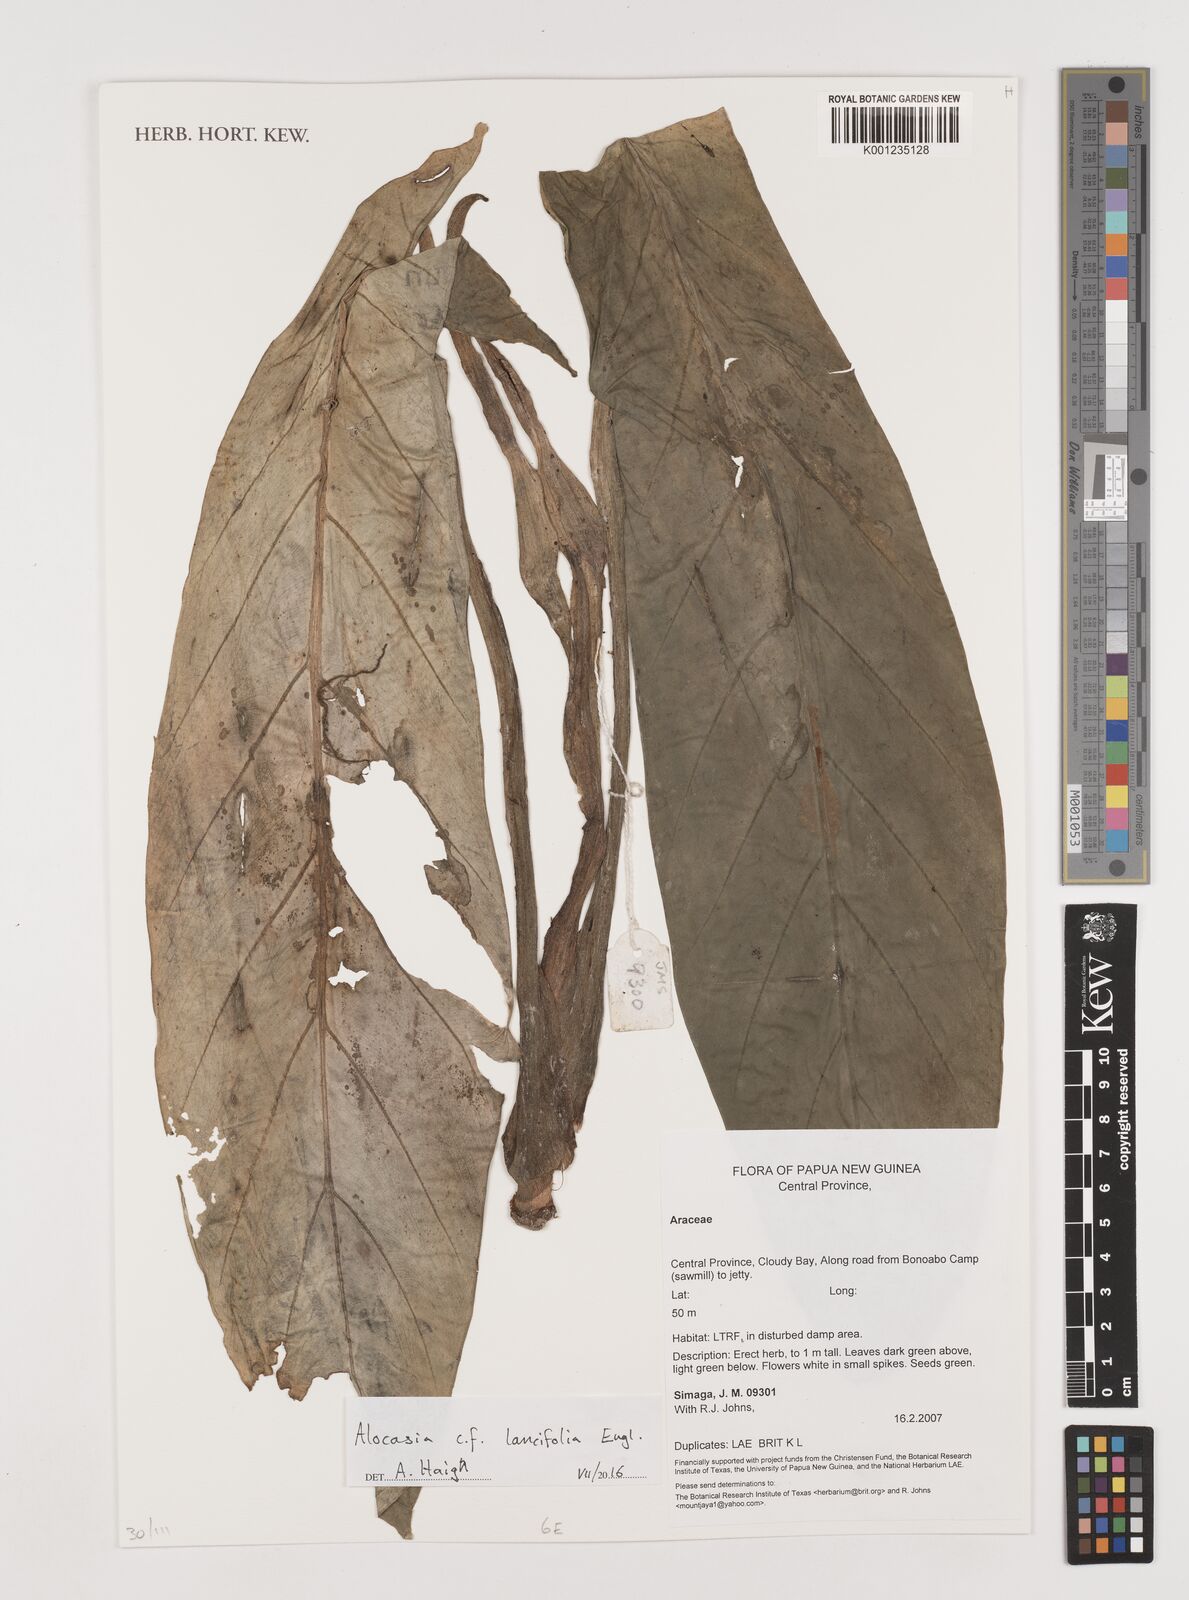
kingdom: Plantae
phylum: Tracheophyta
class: Liliopsida
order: Alismatales
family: Araceae
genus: Alocasia
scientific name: Alocasia lancifolia
